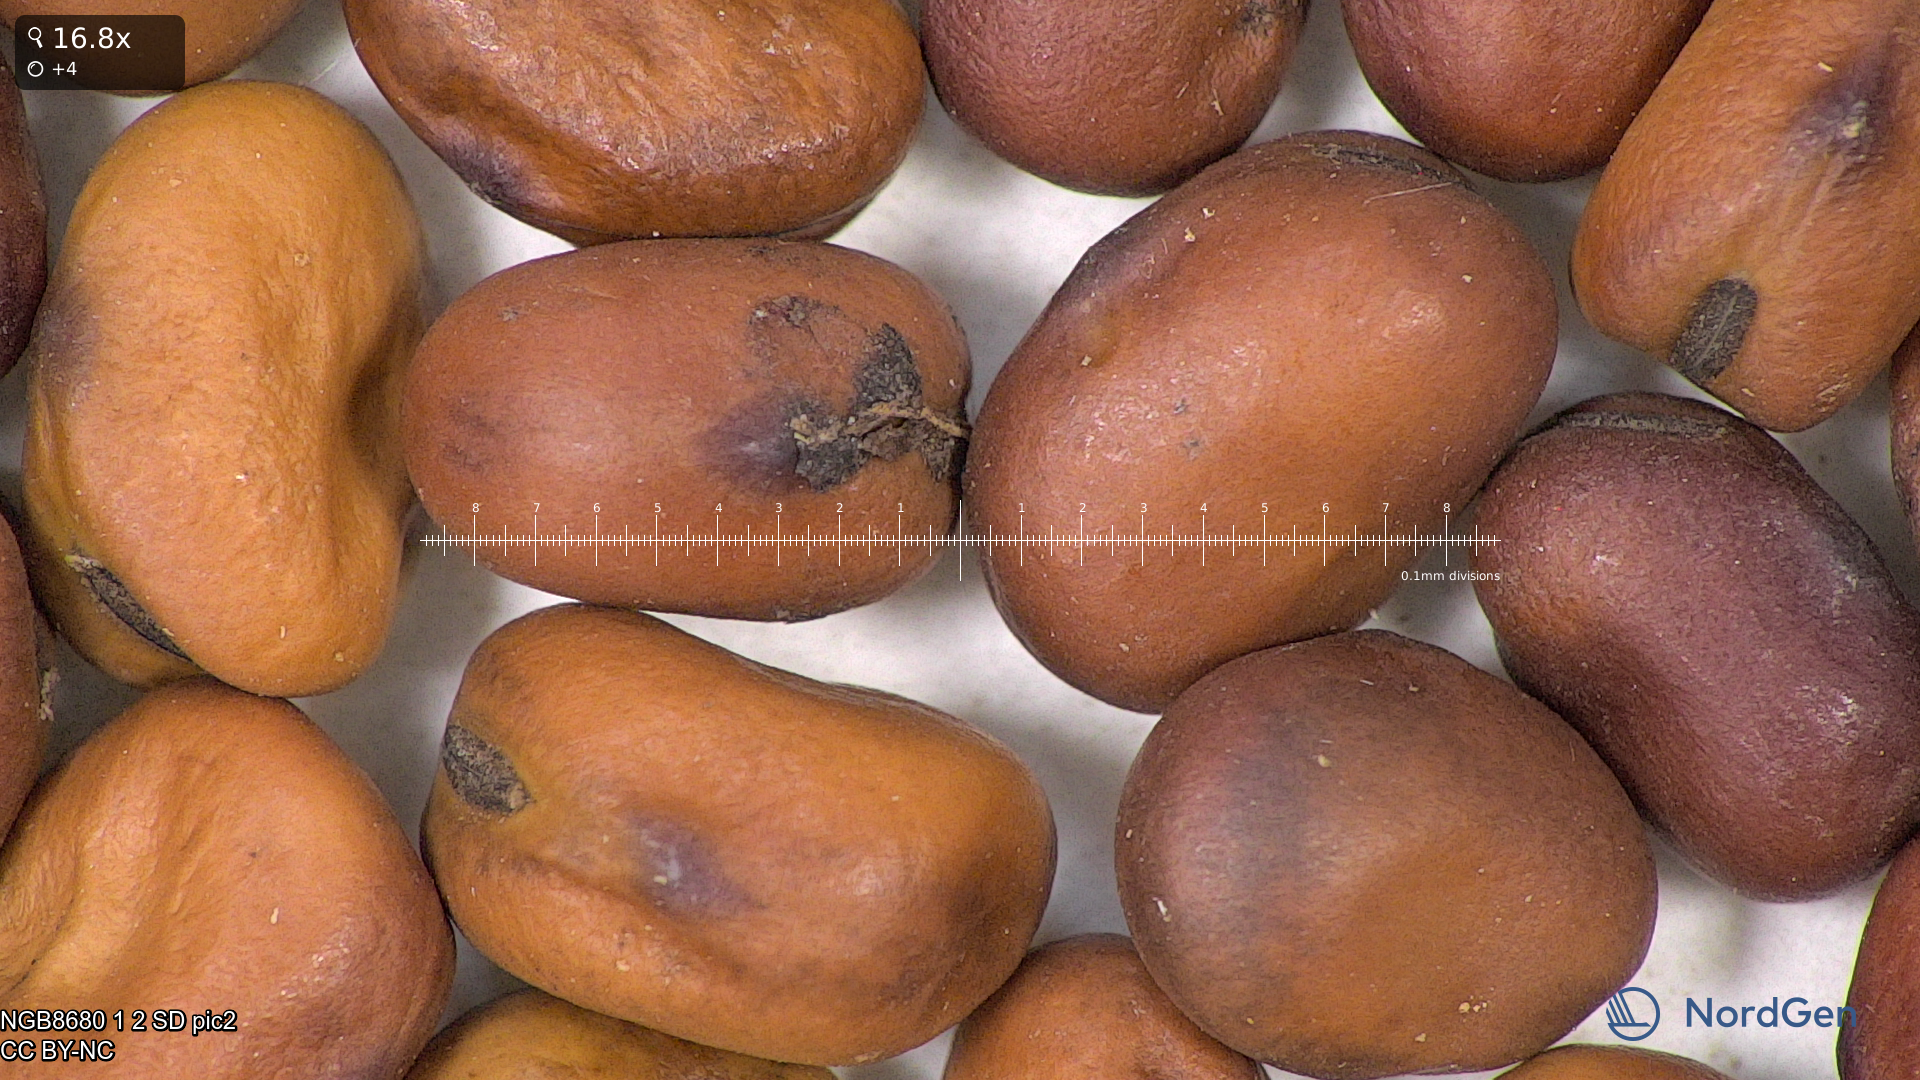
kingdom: Plantae
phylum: Tracheophyta
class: Magnoliopsida
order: Fabales
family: Fabaceae
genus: Vicia
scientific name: Vicia faba
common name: Broad bean
